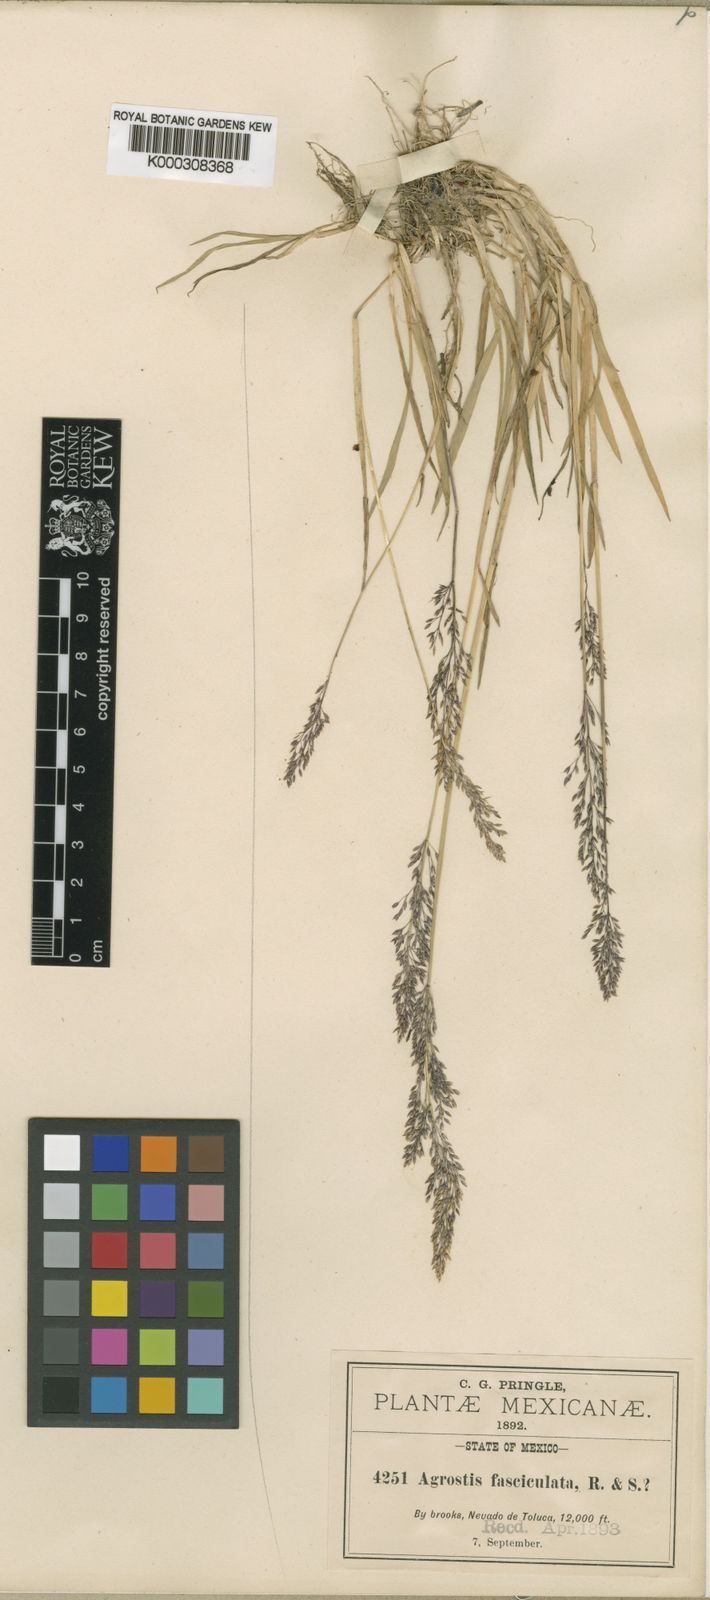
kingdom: Plantae
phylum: Tracheophyta
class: Liliopsida
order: Poales
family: Poaceae
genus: Agrostis
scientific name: Agrostis perennans
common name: Autumn bent
